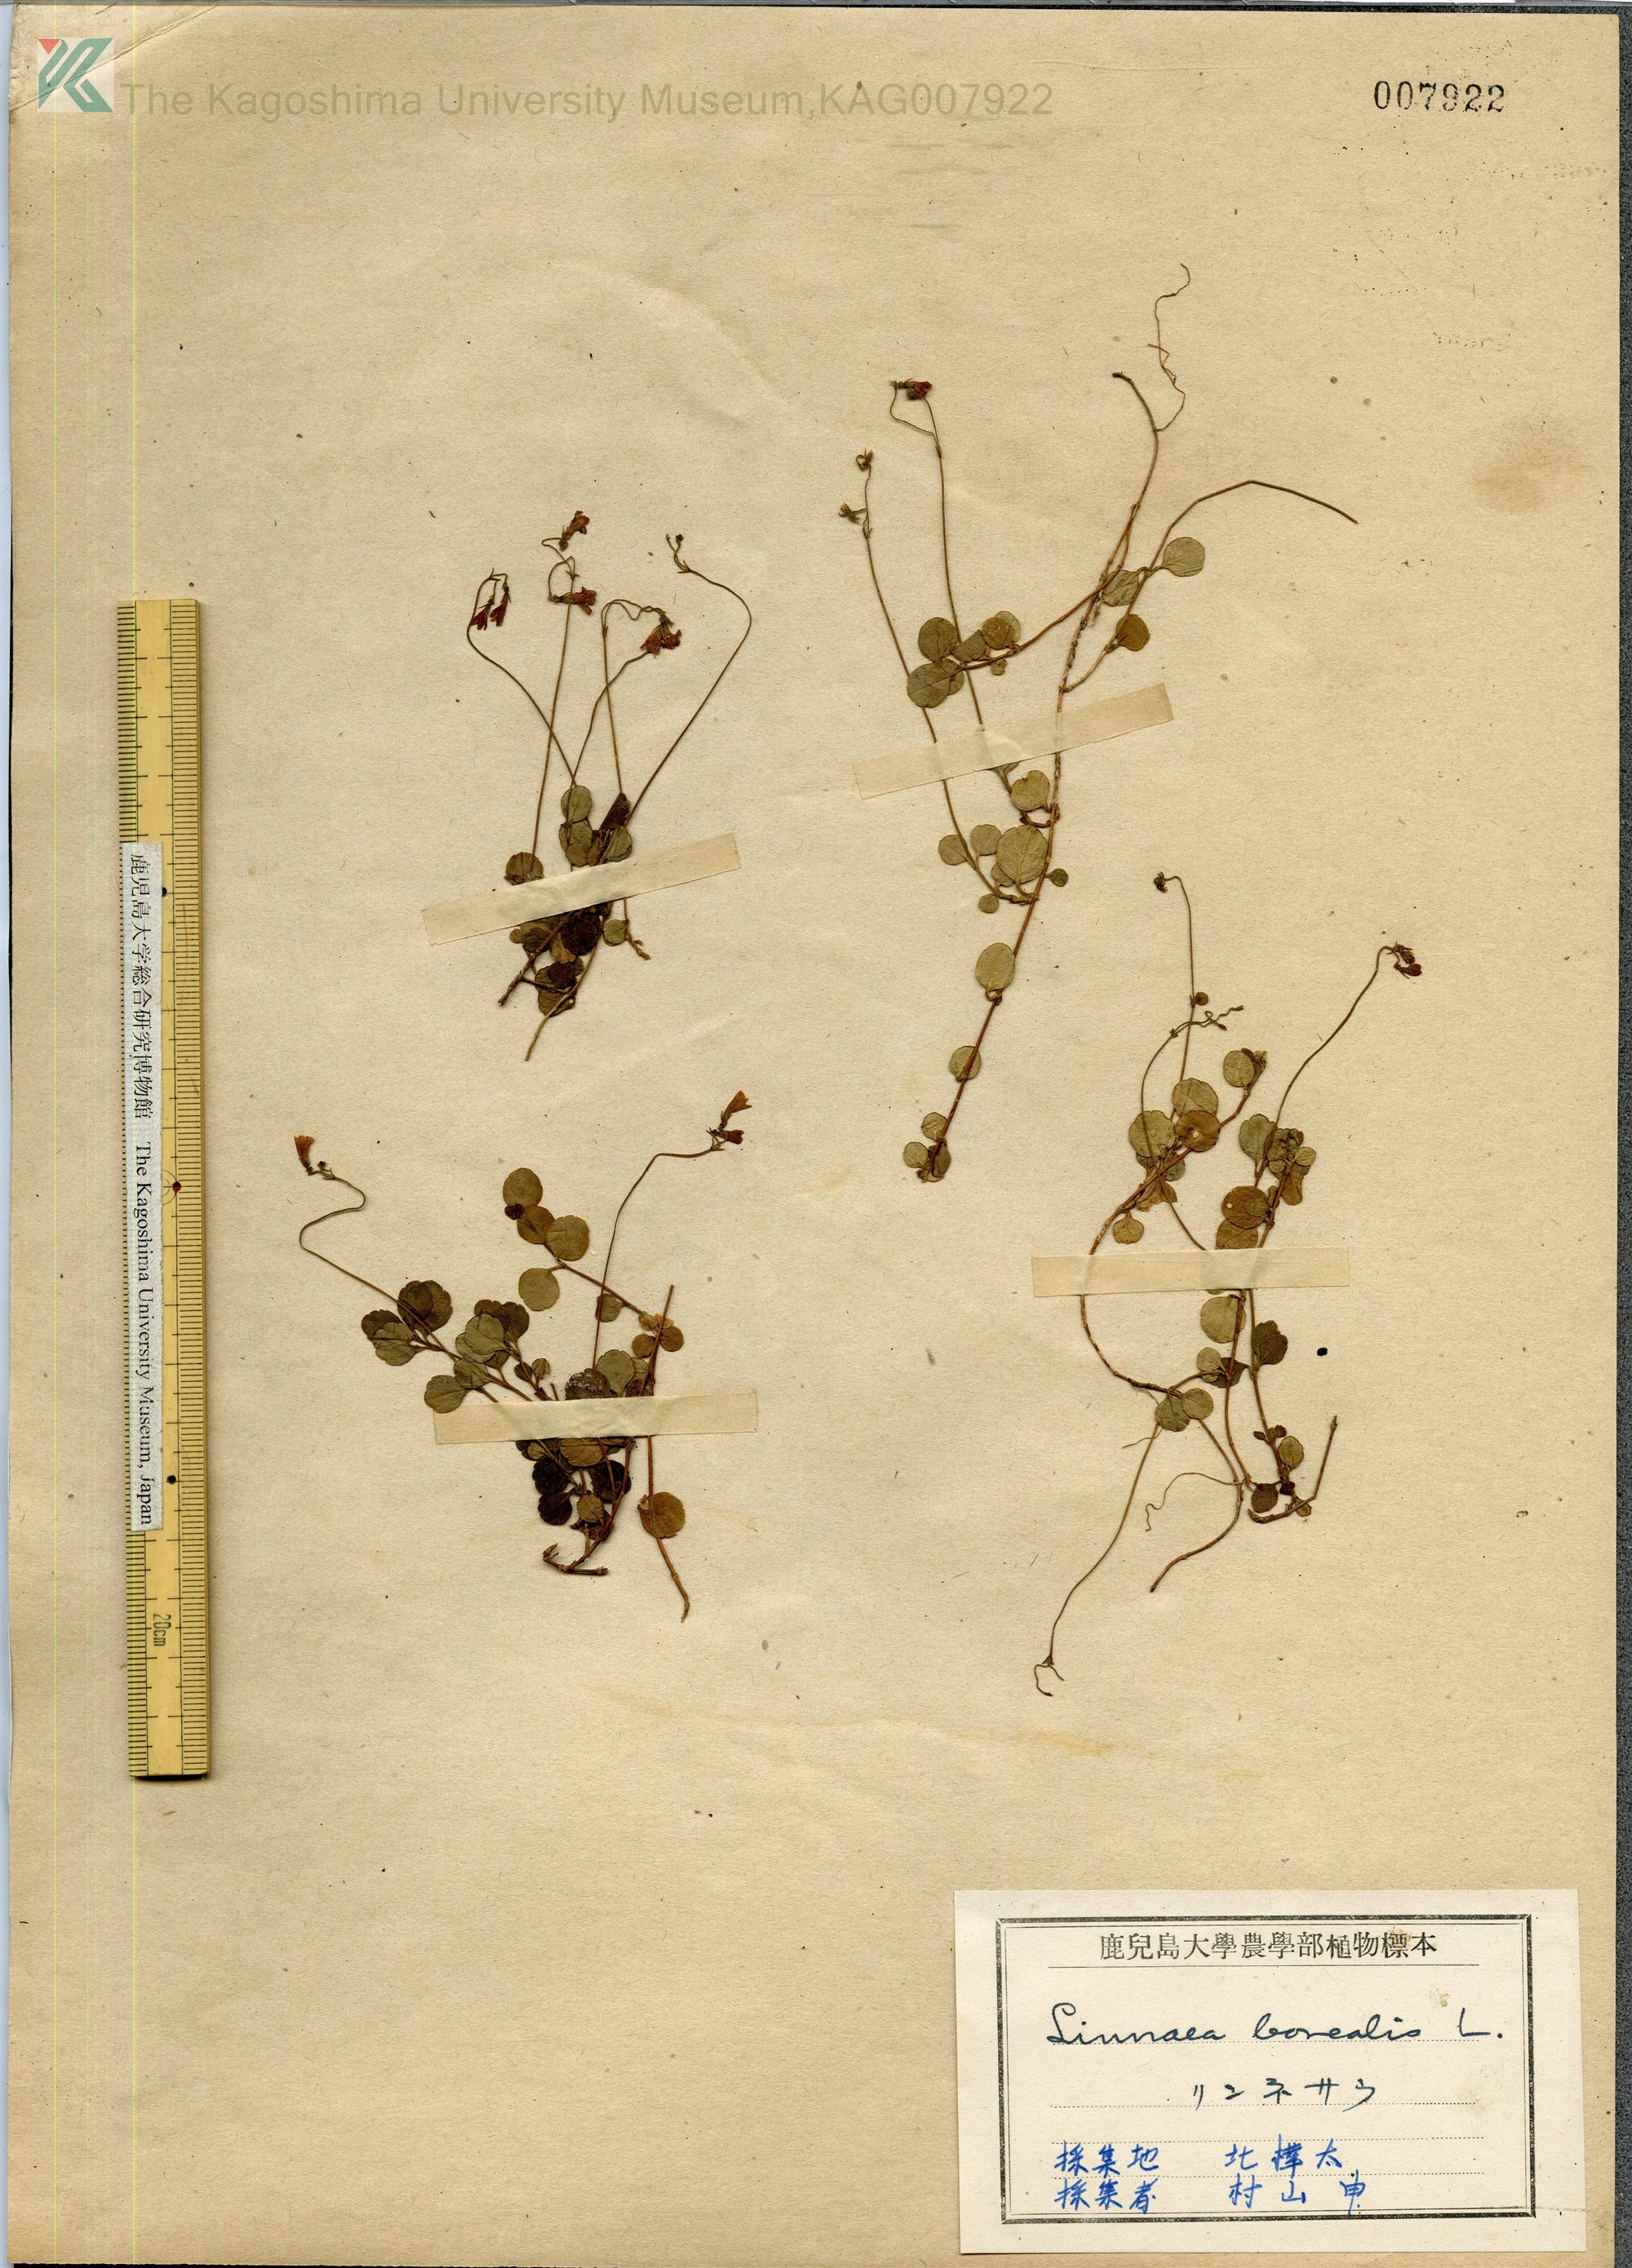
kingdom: Plantae
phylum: Tracheophyta
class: Magnoliopsida
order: Dipsacales
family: Caprifoliaceae
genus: Linnaea
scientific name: Linnaea borealis
